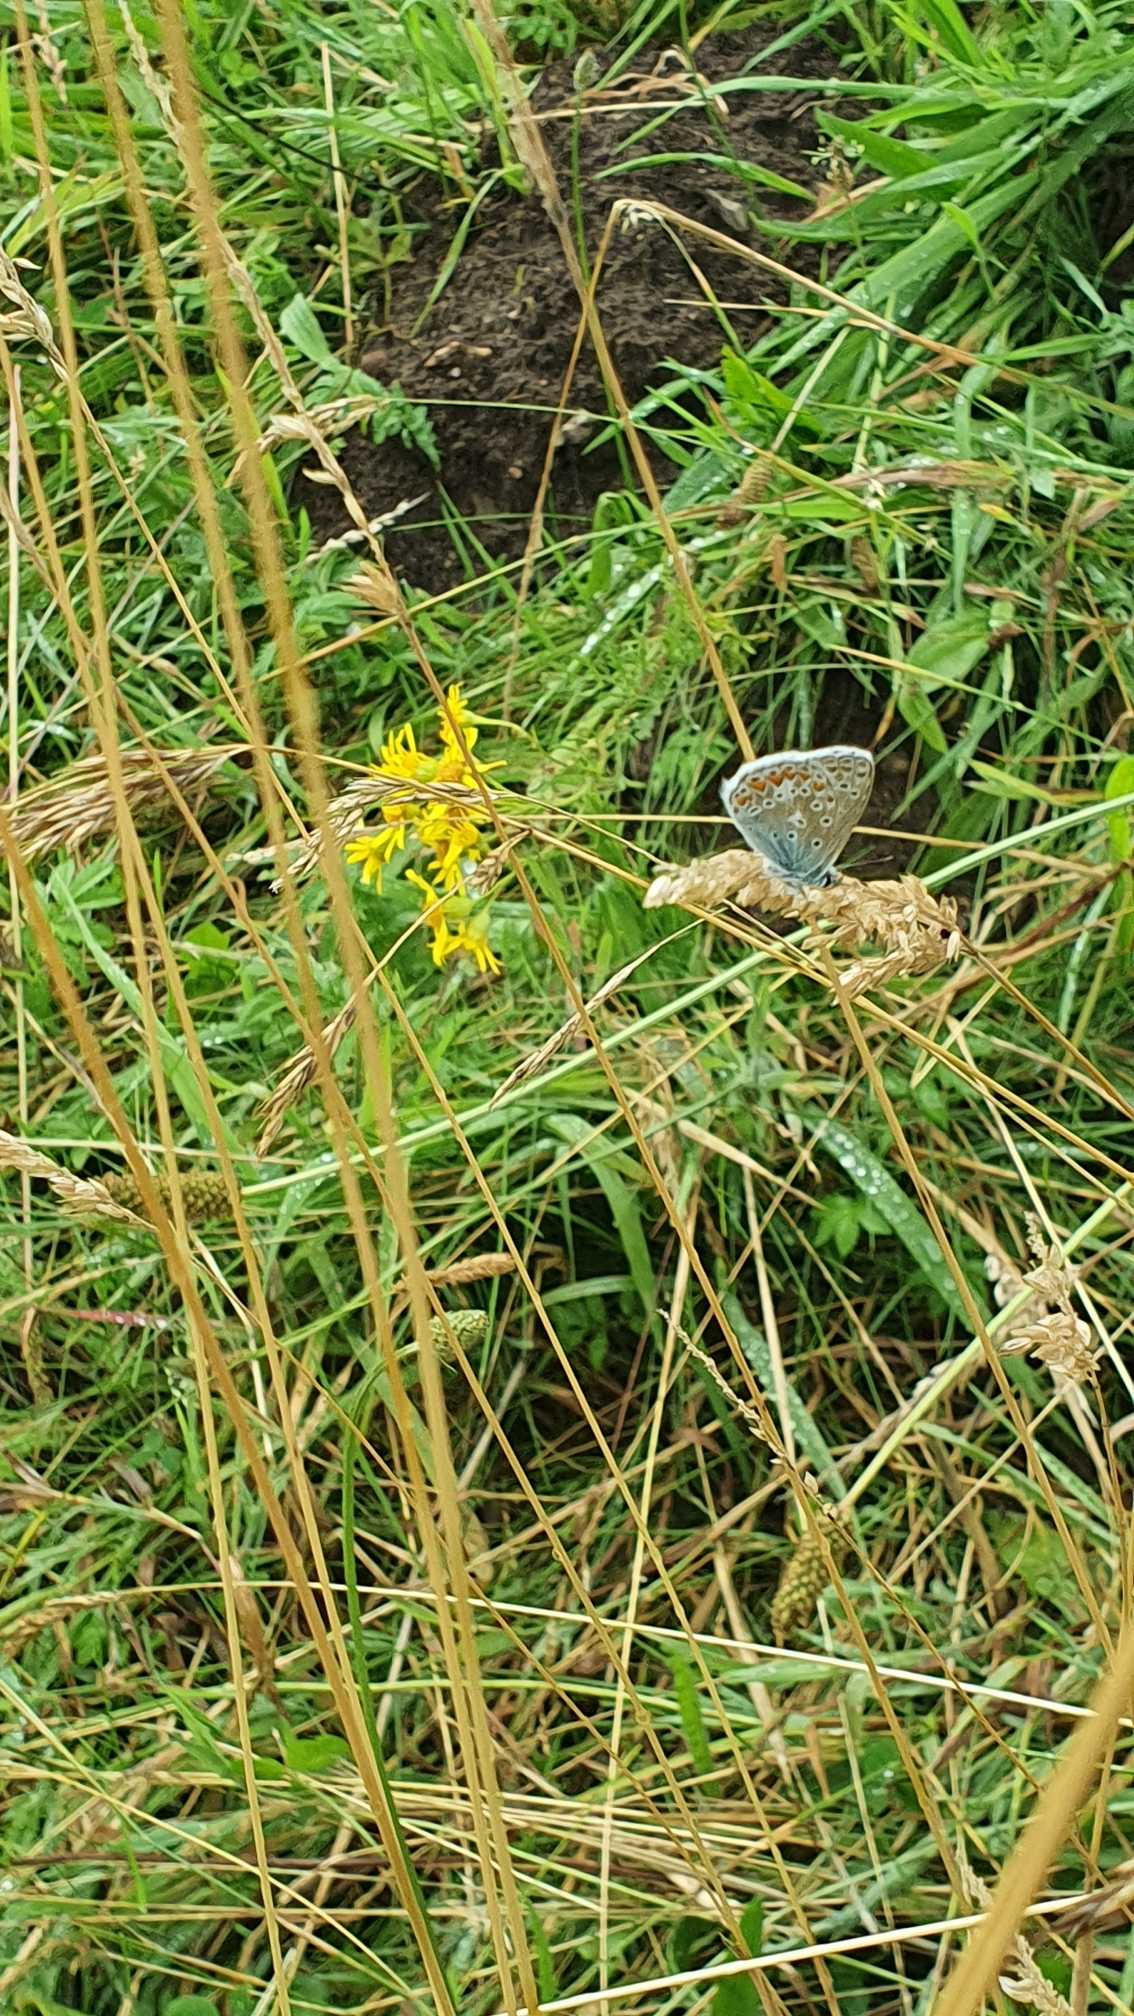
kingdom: Animalia
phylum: Arthropoda
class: Insecta
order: Lepidoptera
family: Lycaenidae
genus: Polyommatus
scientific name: Polyommatus icarus
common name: Almindelig blåfugl
